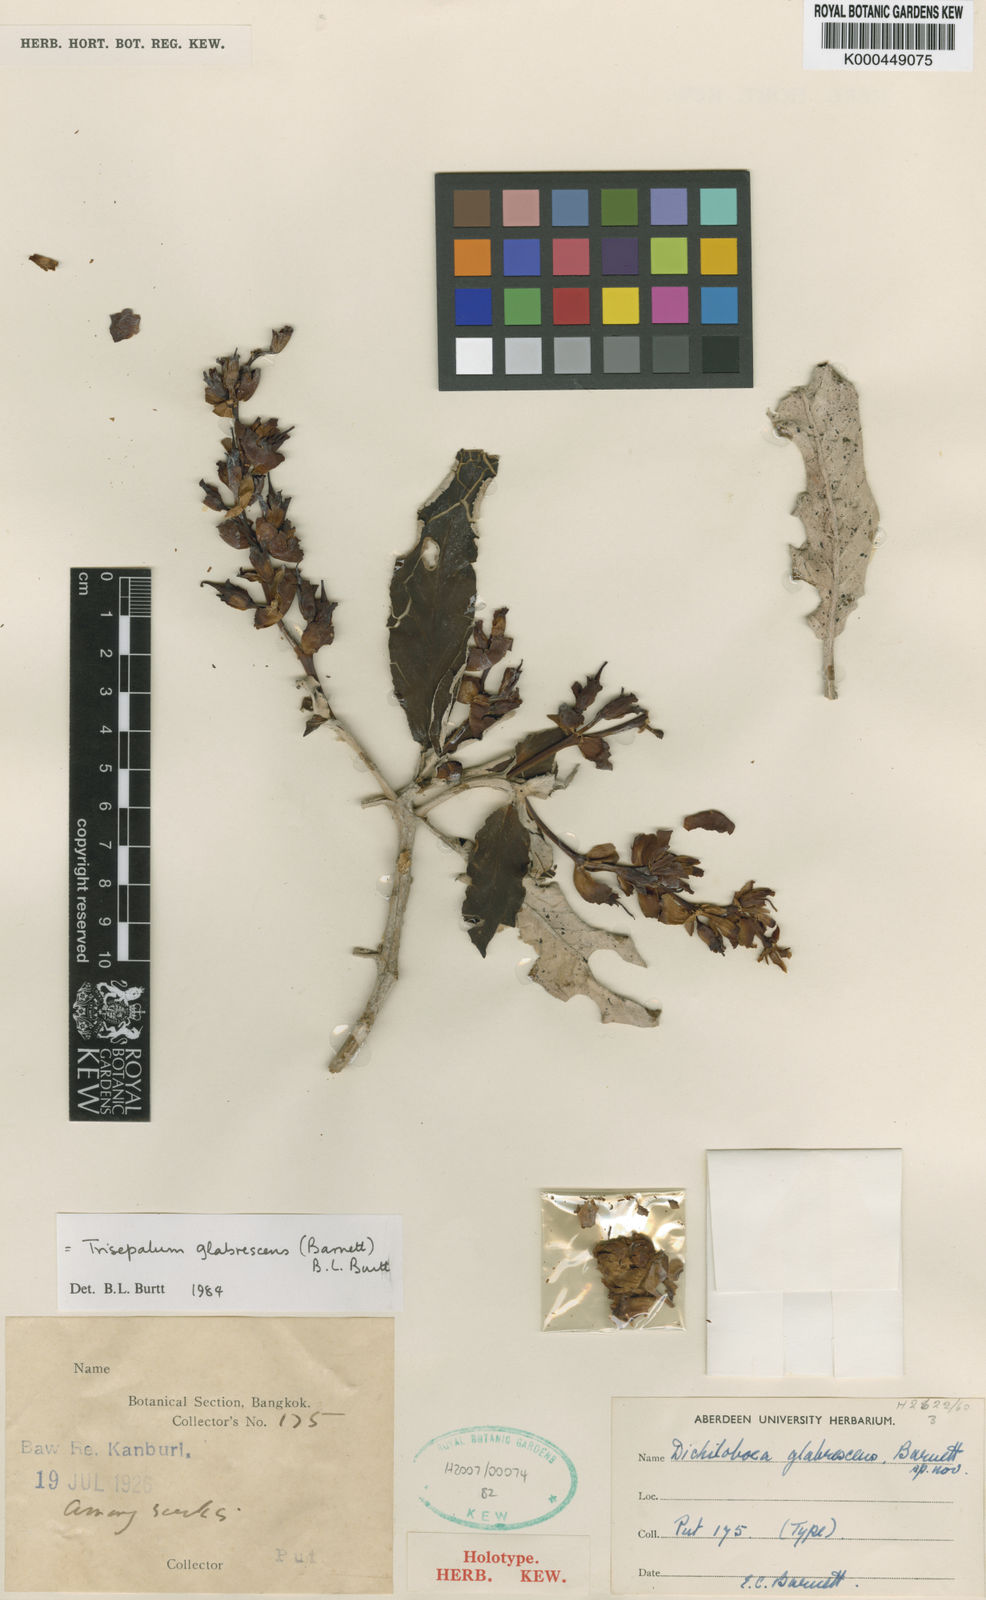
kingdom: Plantae
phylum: Tracheophyta
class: Magnoliopsida
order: Lamiales
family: Gesneriaceae
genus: Paraboea
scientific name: Paraboea glabrescens
